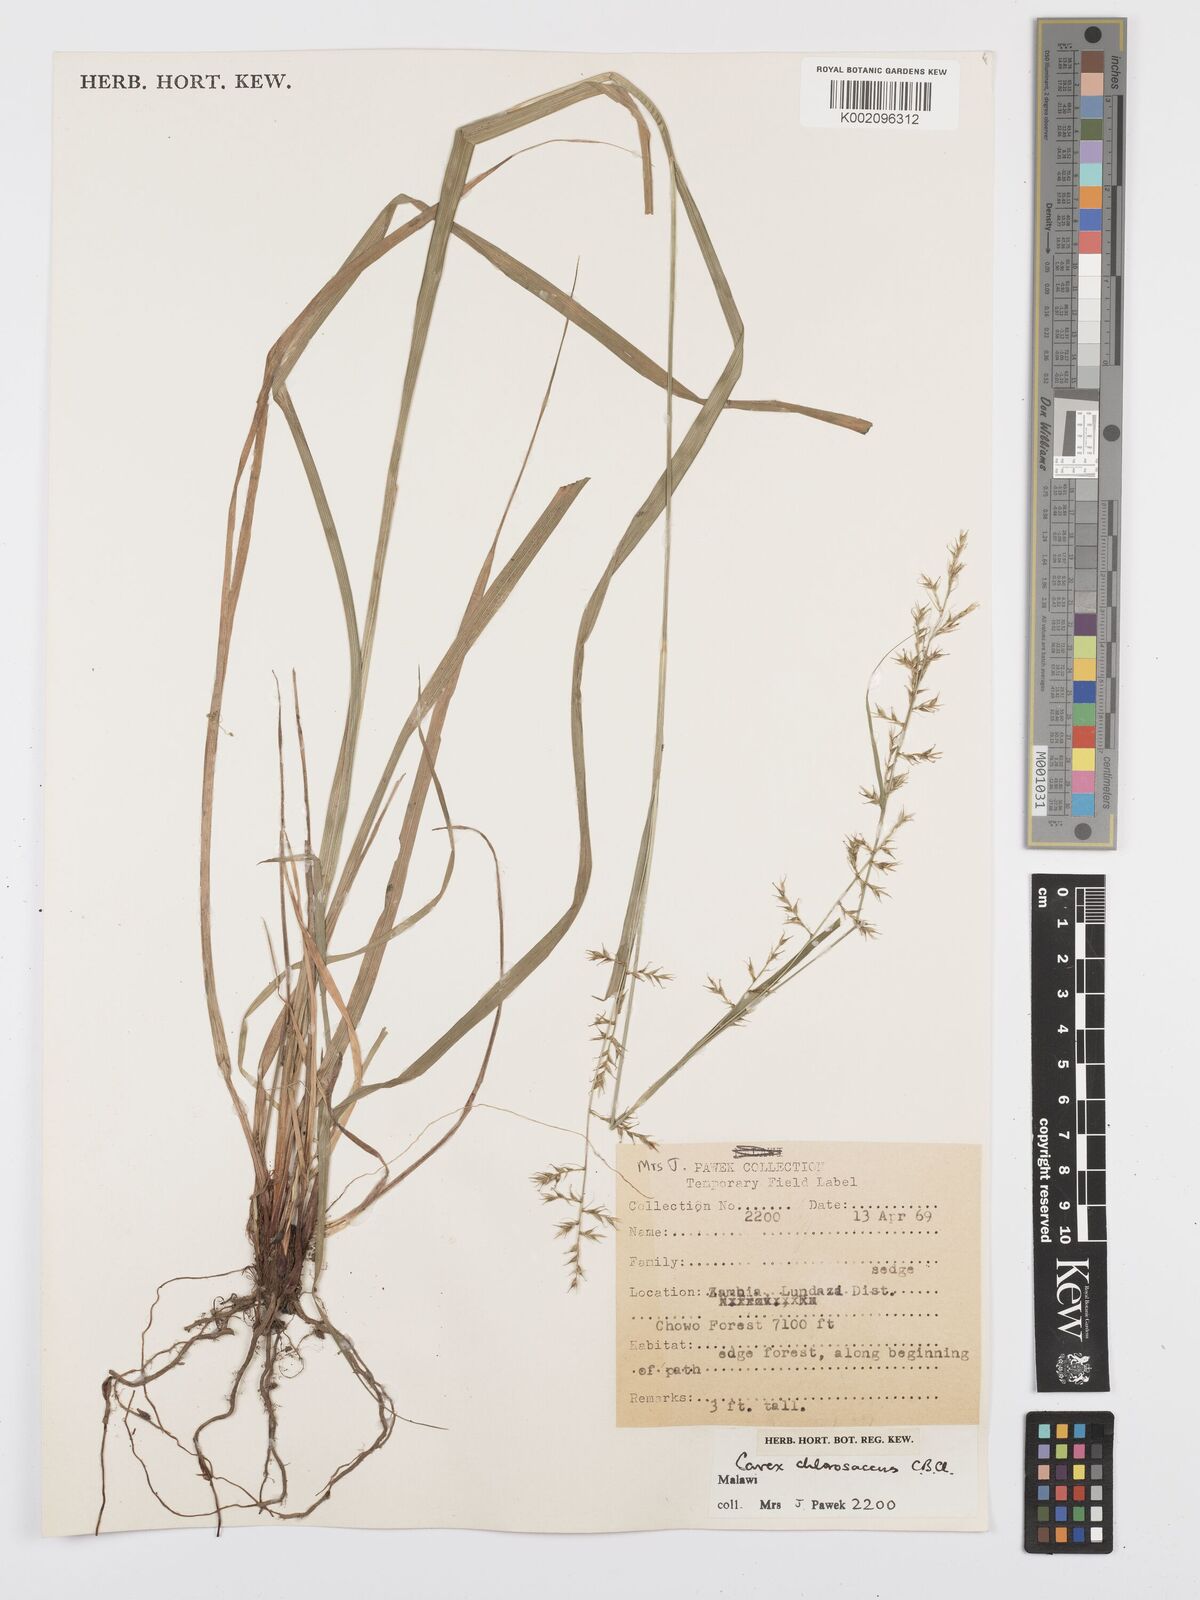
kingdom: Plantae
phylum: Tracheophyta
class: Liliopsida
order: Poales
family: Cyperaceae
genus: Carex
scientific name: Carex chlorosaccus
